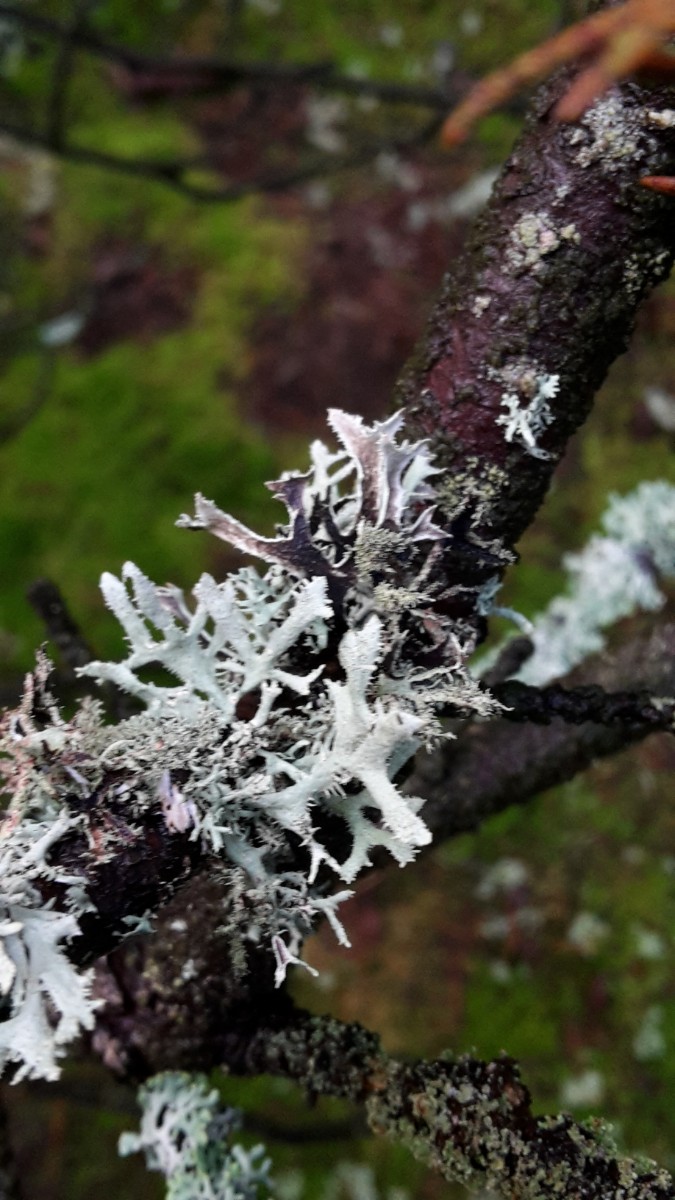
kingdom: Fungi
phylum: Ascomycota
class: Lecanoromycetes
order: Lecanorales
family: Parmeliaceae
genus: Pseudevernia
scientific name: Pseudevernia furfuracea
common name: grå fyrrelav
